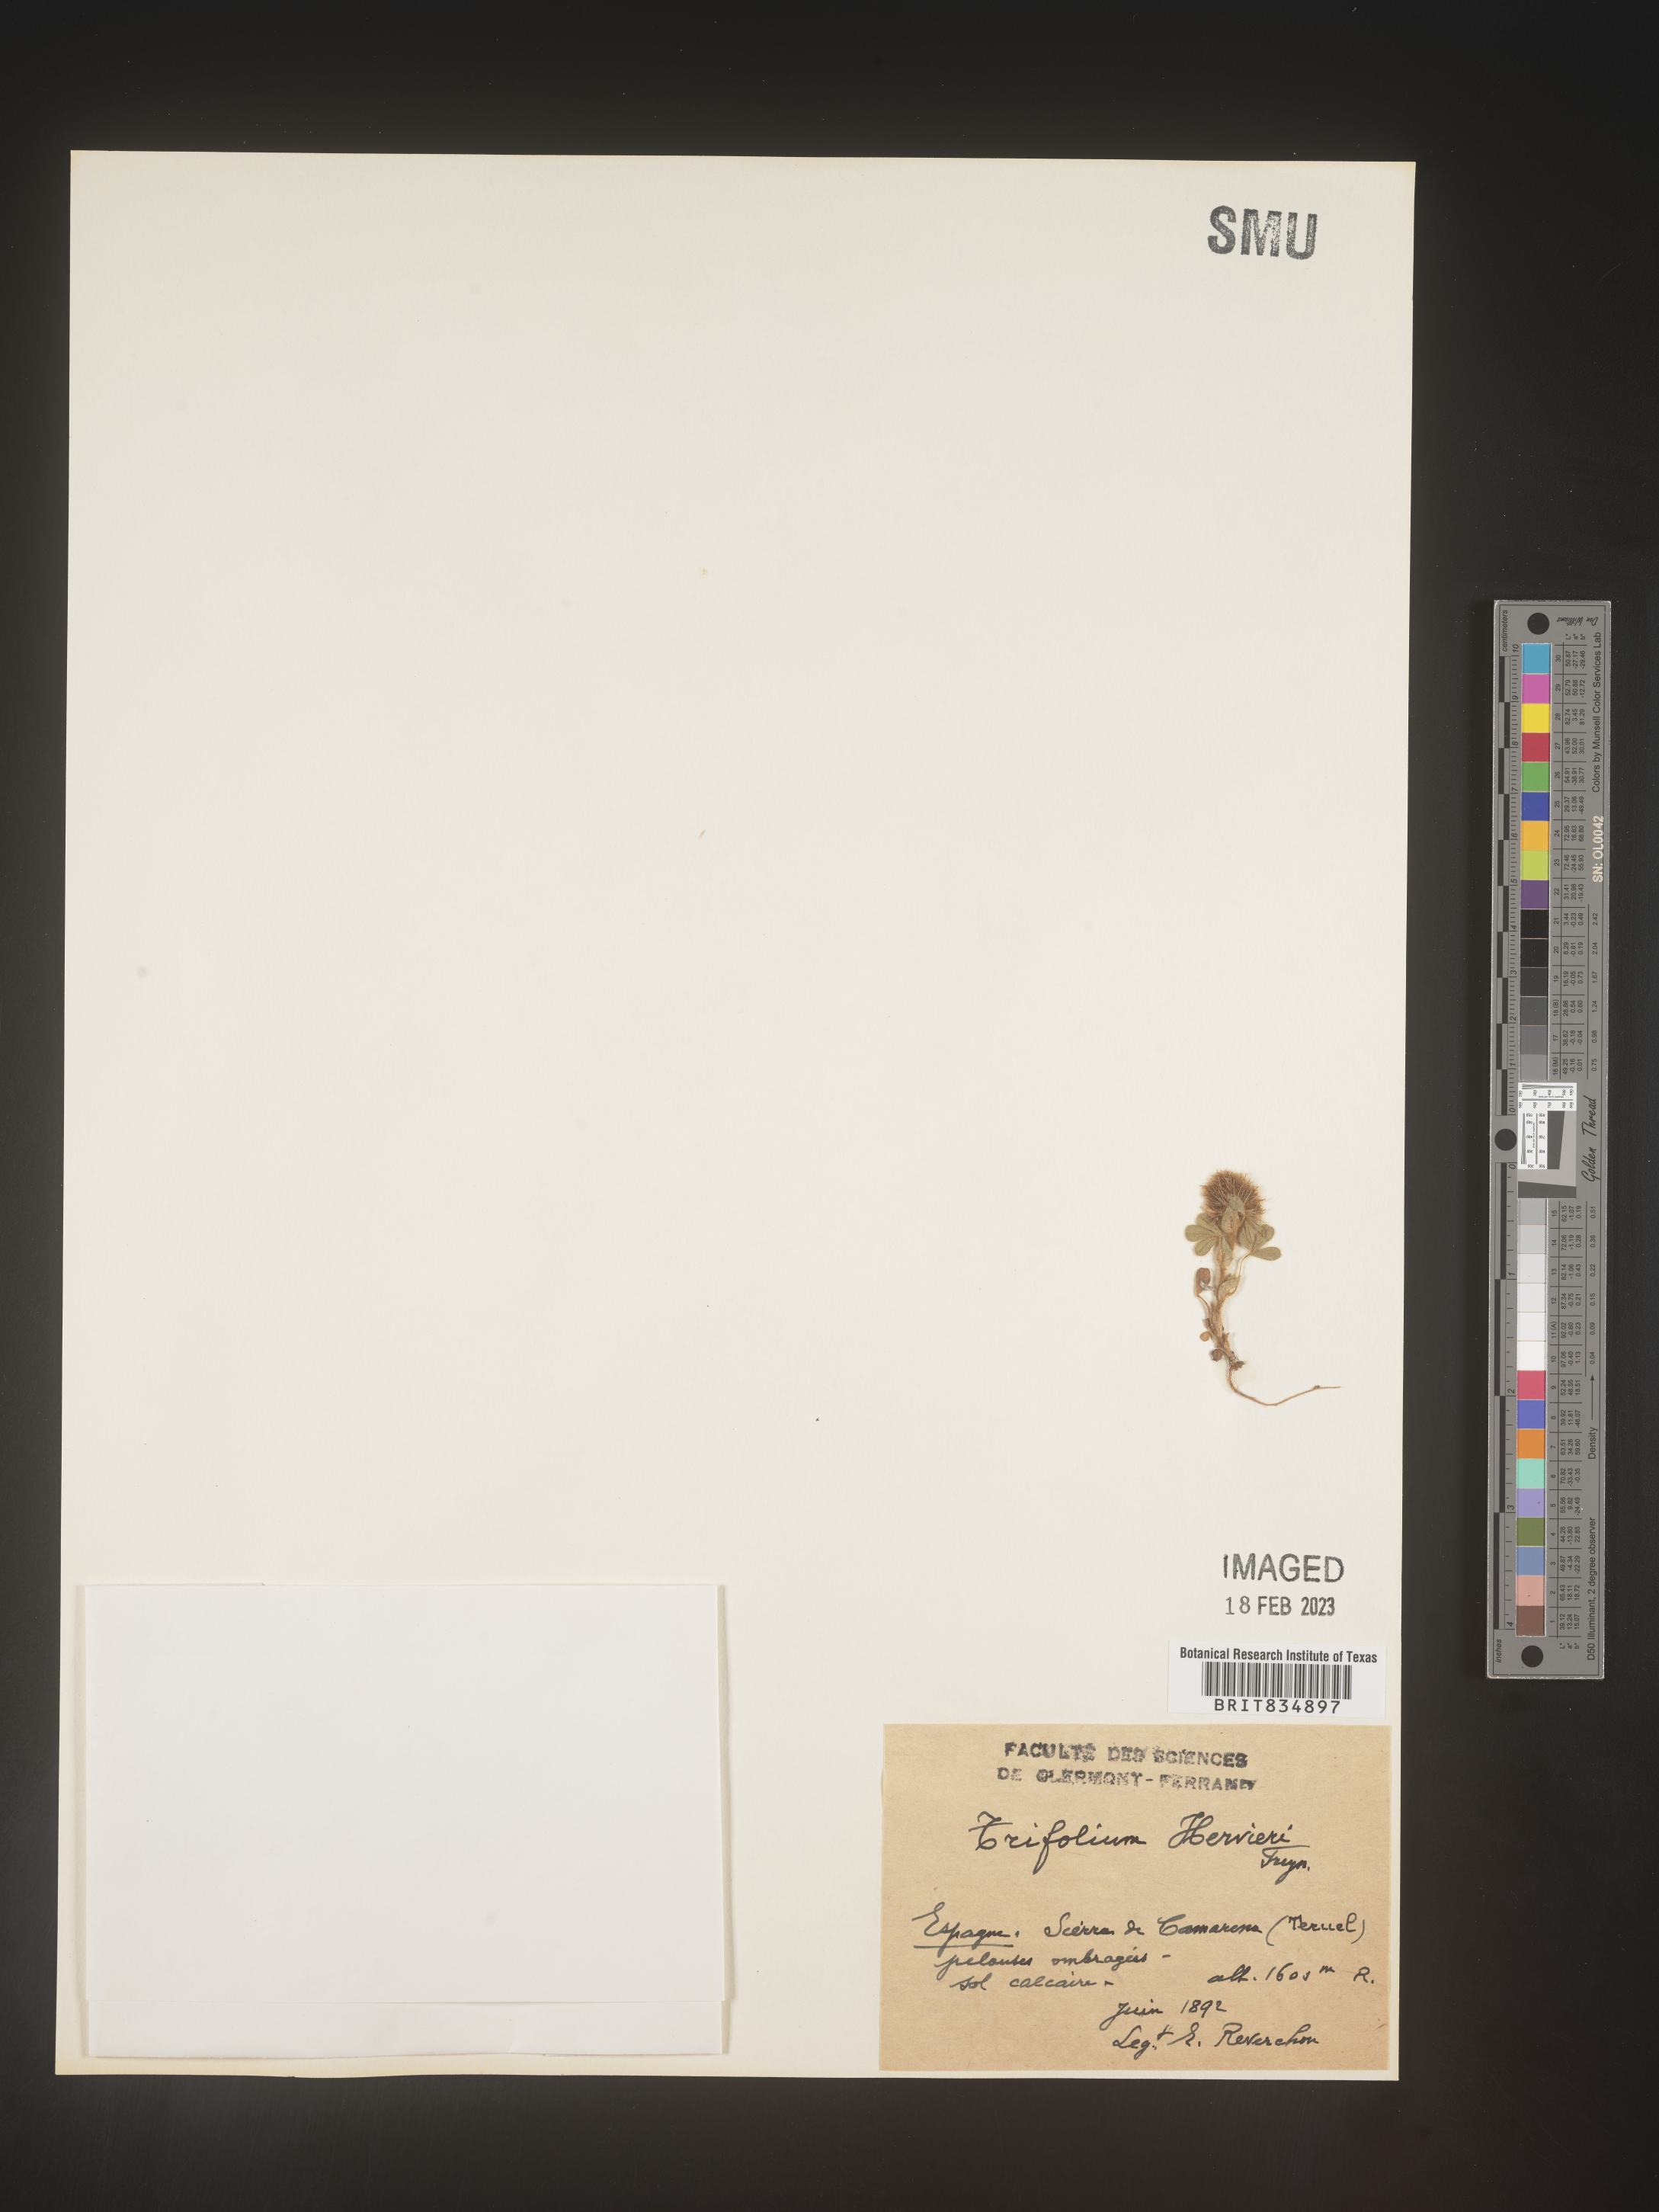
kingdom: Plantae
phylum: Tracheophyta
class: Magnoliopsida
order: Fabales
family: Fabaceae
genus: Trifolium
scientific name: Trifolium
